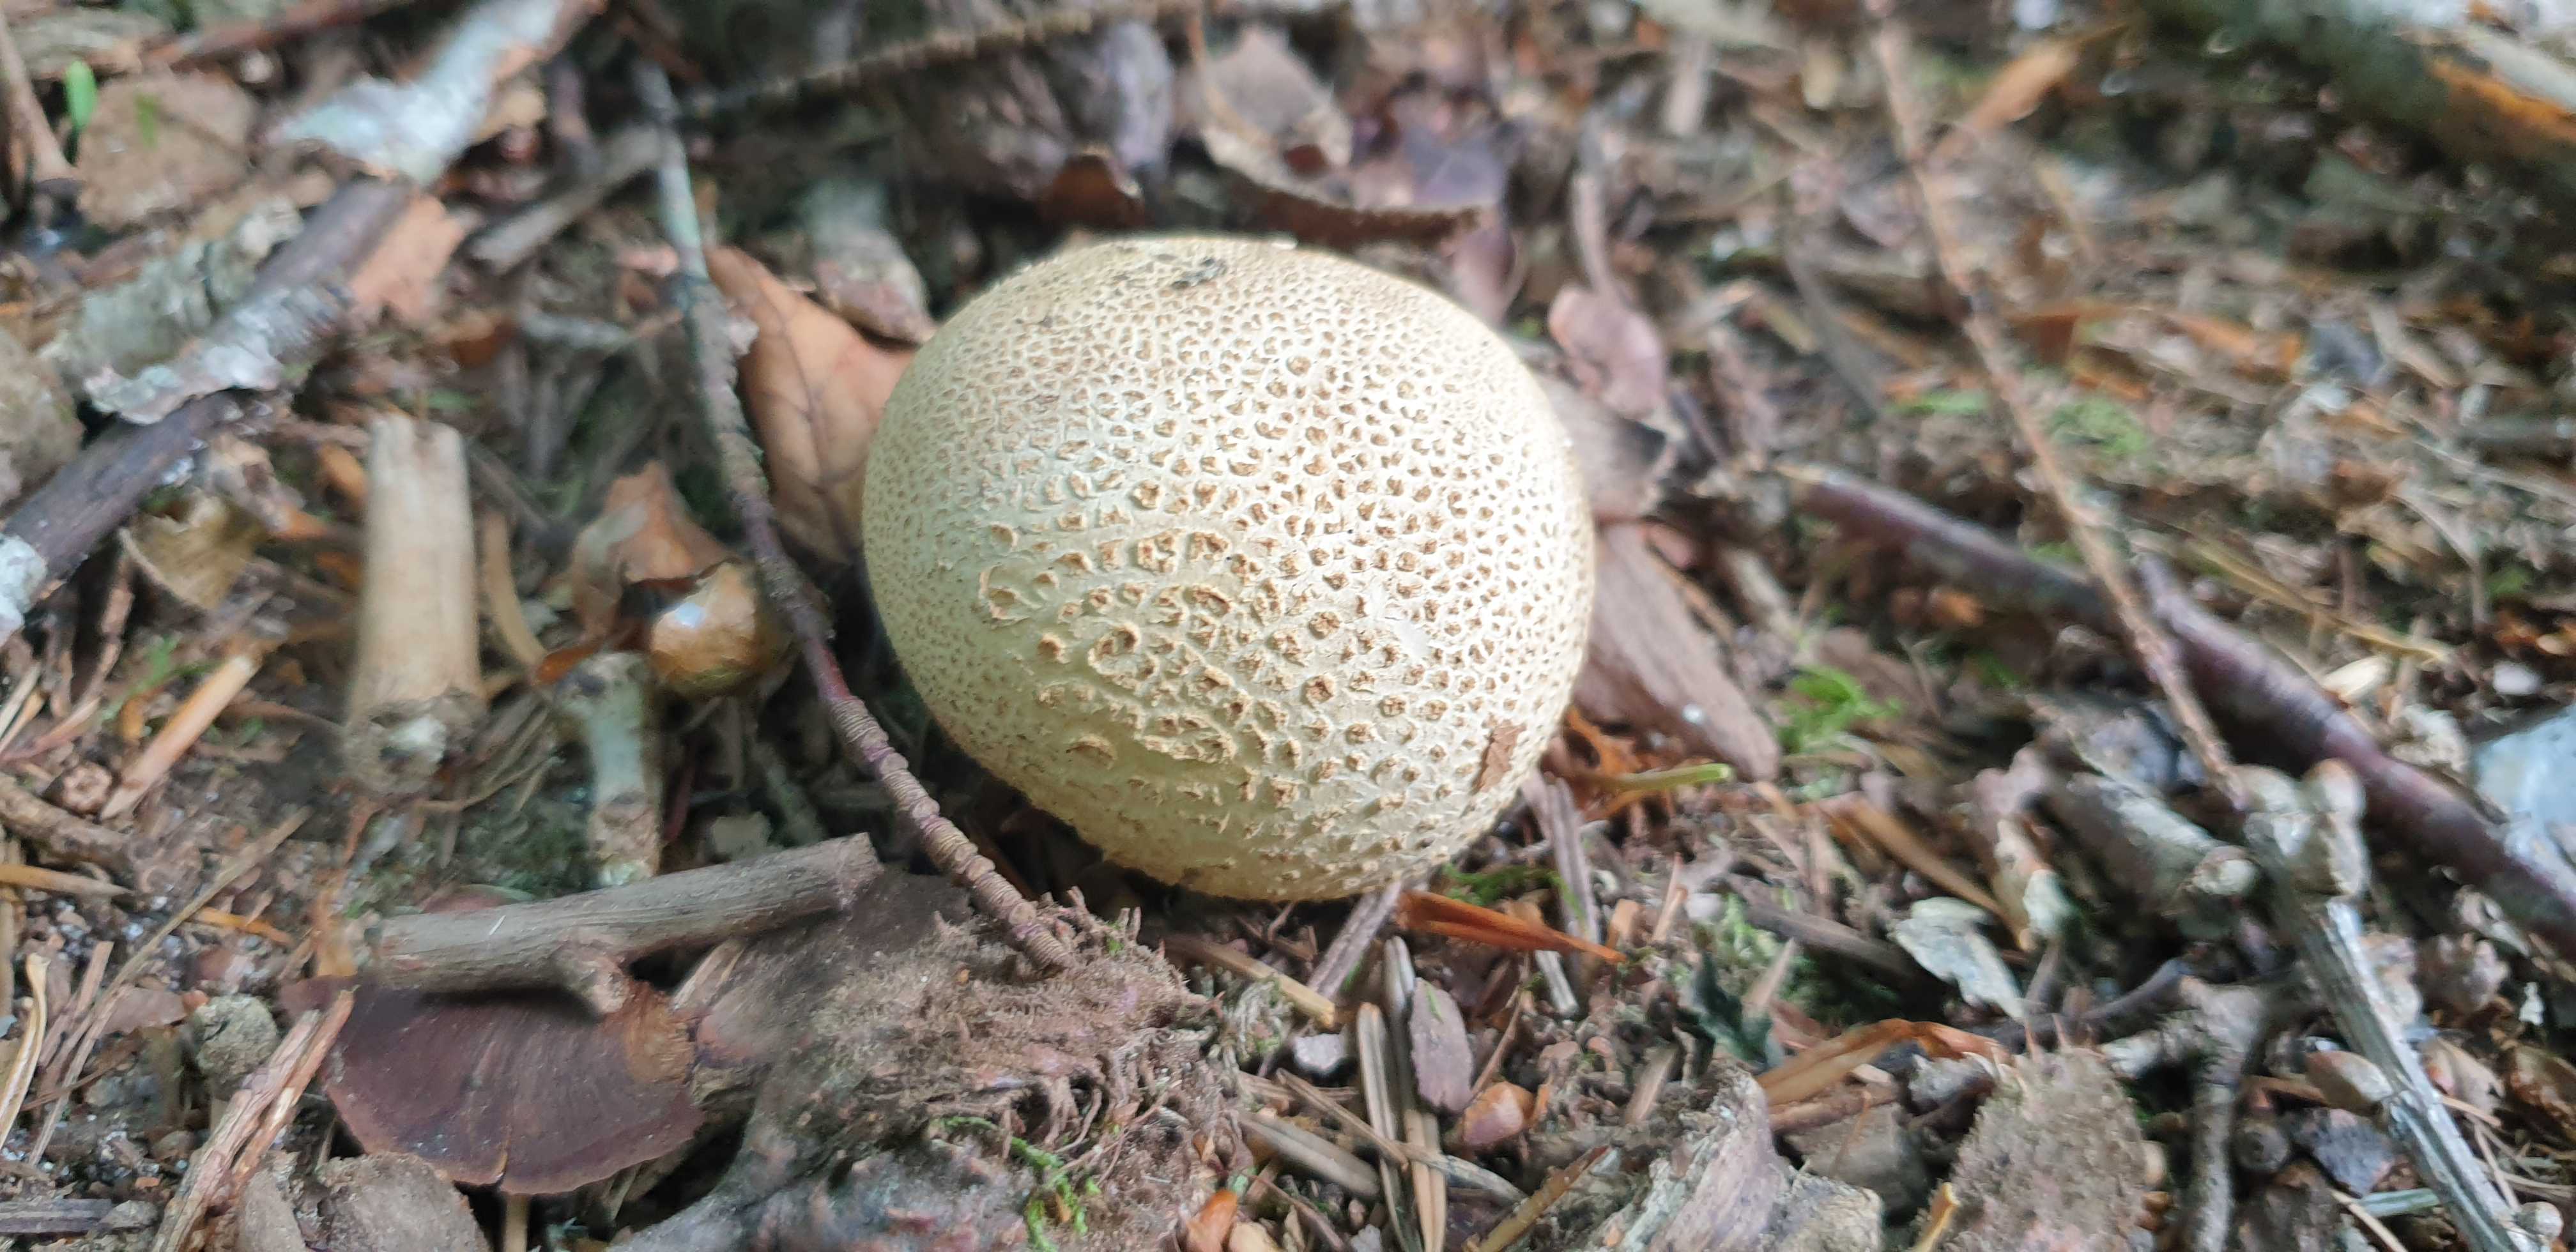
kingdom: Fungi
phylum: Basidiomycota
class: Agaricomycetes
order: Boletales
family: Sclerodermataceae
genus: Scleroderma
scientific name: Scleroderma citrinum
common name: almindelig bruskbold
